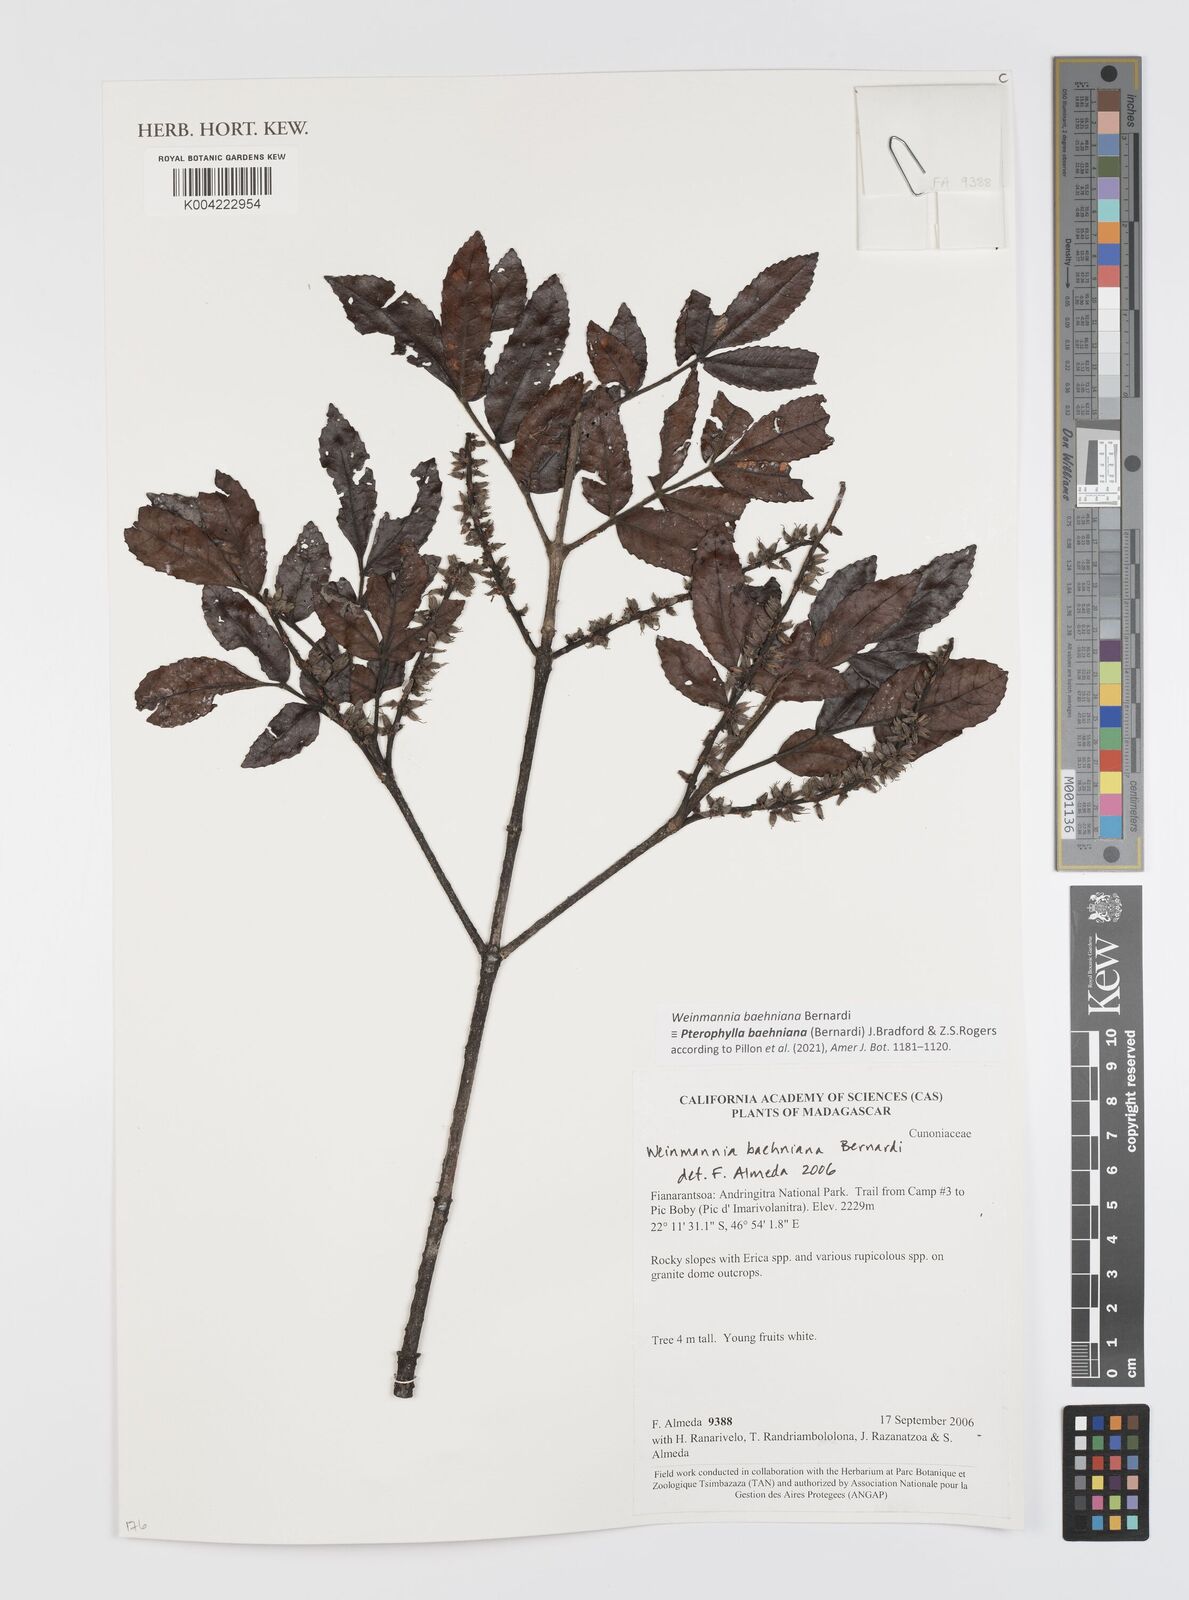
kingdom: Plantae
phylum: Tracheophyta
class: Magnoliopsida
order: Oxalidales
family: Cunoniaceae
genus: Pterophylla
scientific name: Pterophylla baehniana
